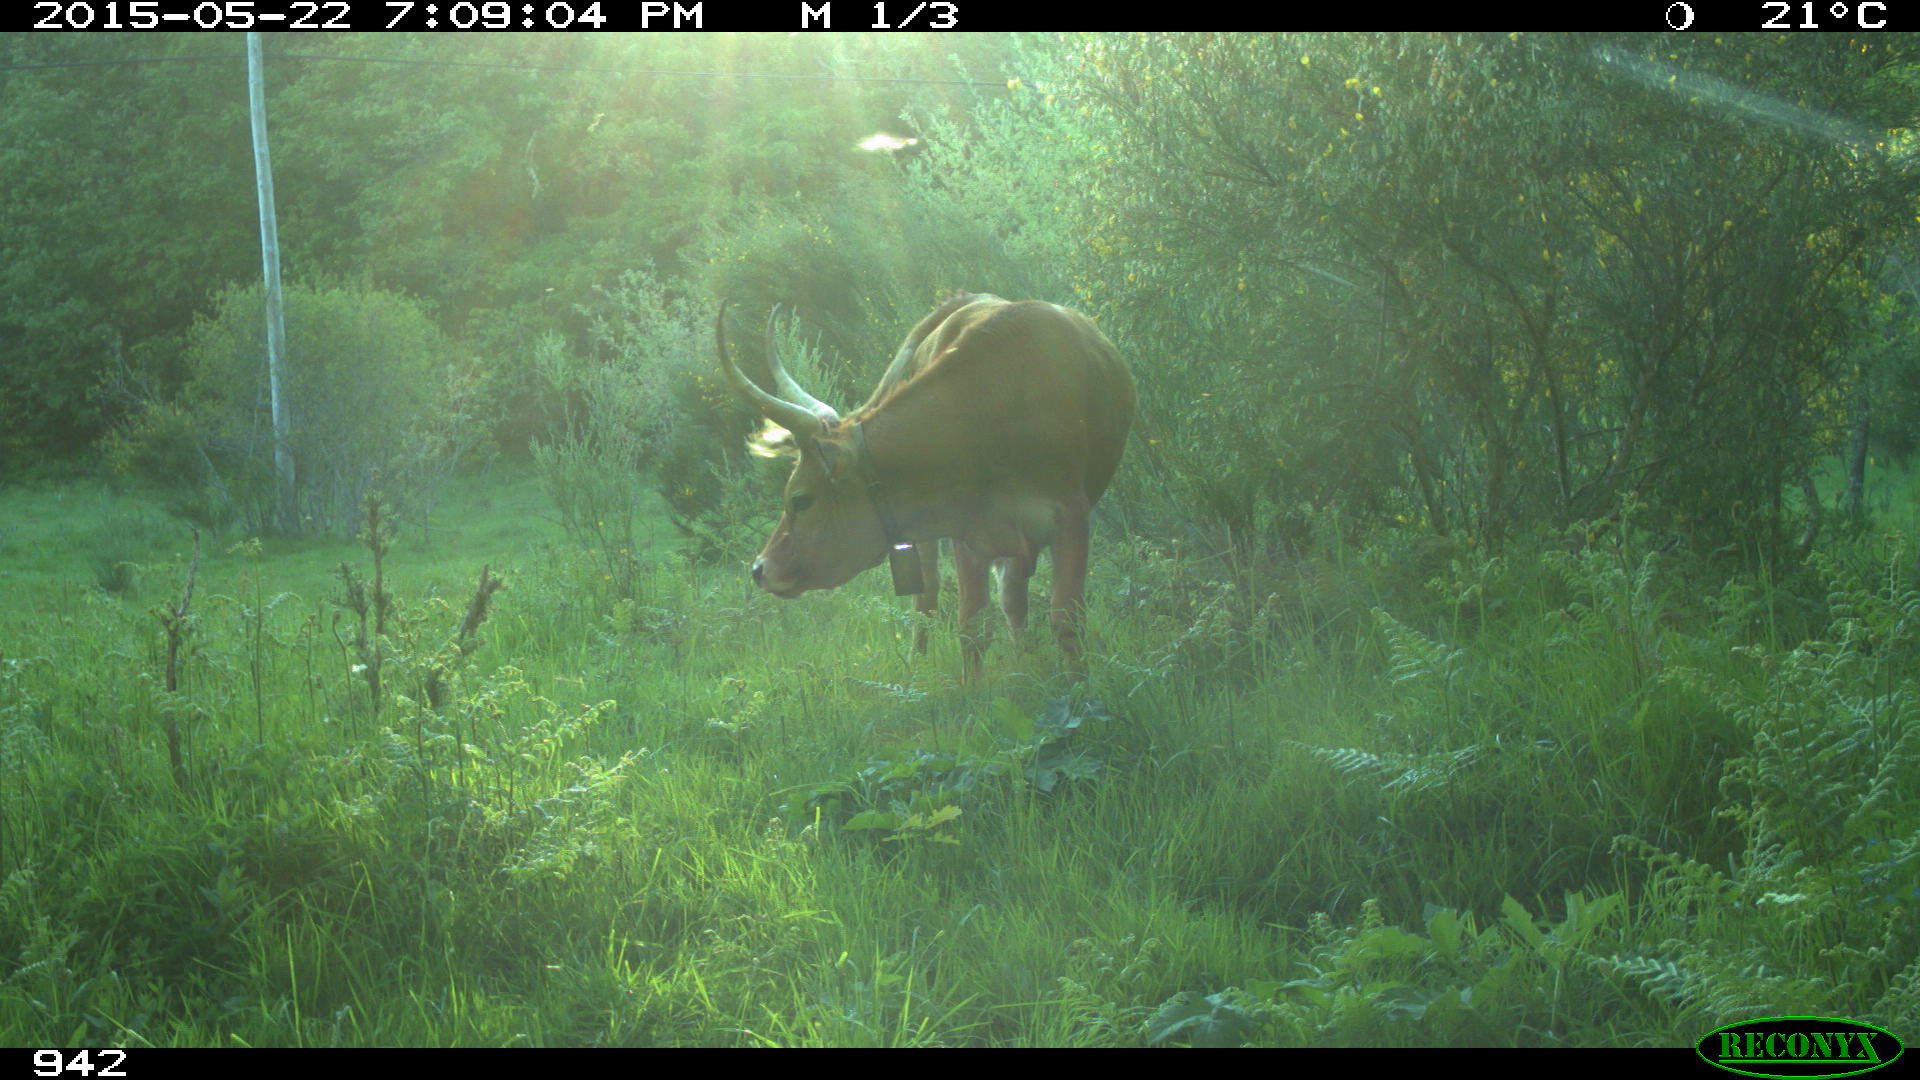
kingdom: Animalia
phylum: Chordata
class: Mammalia
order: Artiodactyla
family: Bovidae
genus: Bos
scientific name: Bos taurus
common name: Domesticated cattle
